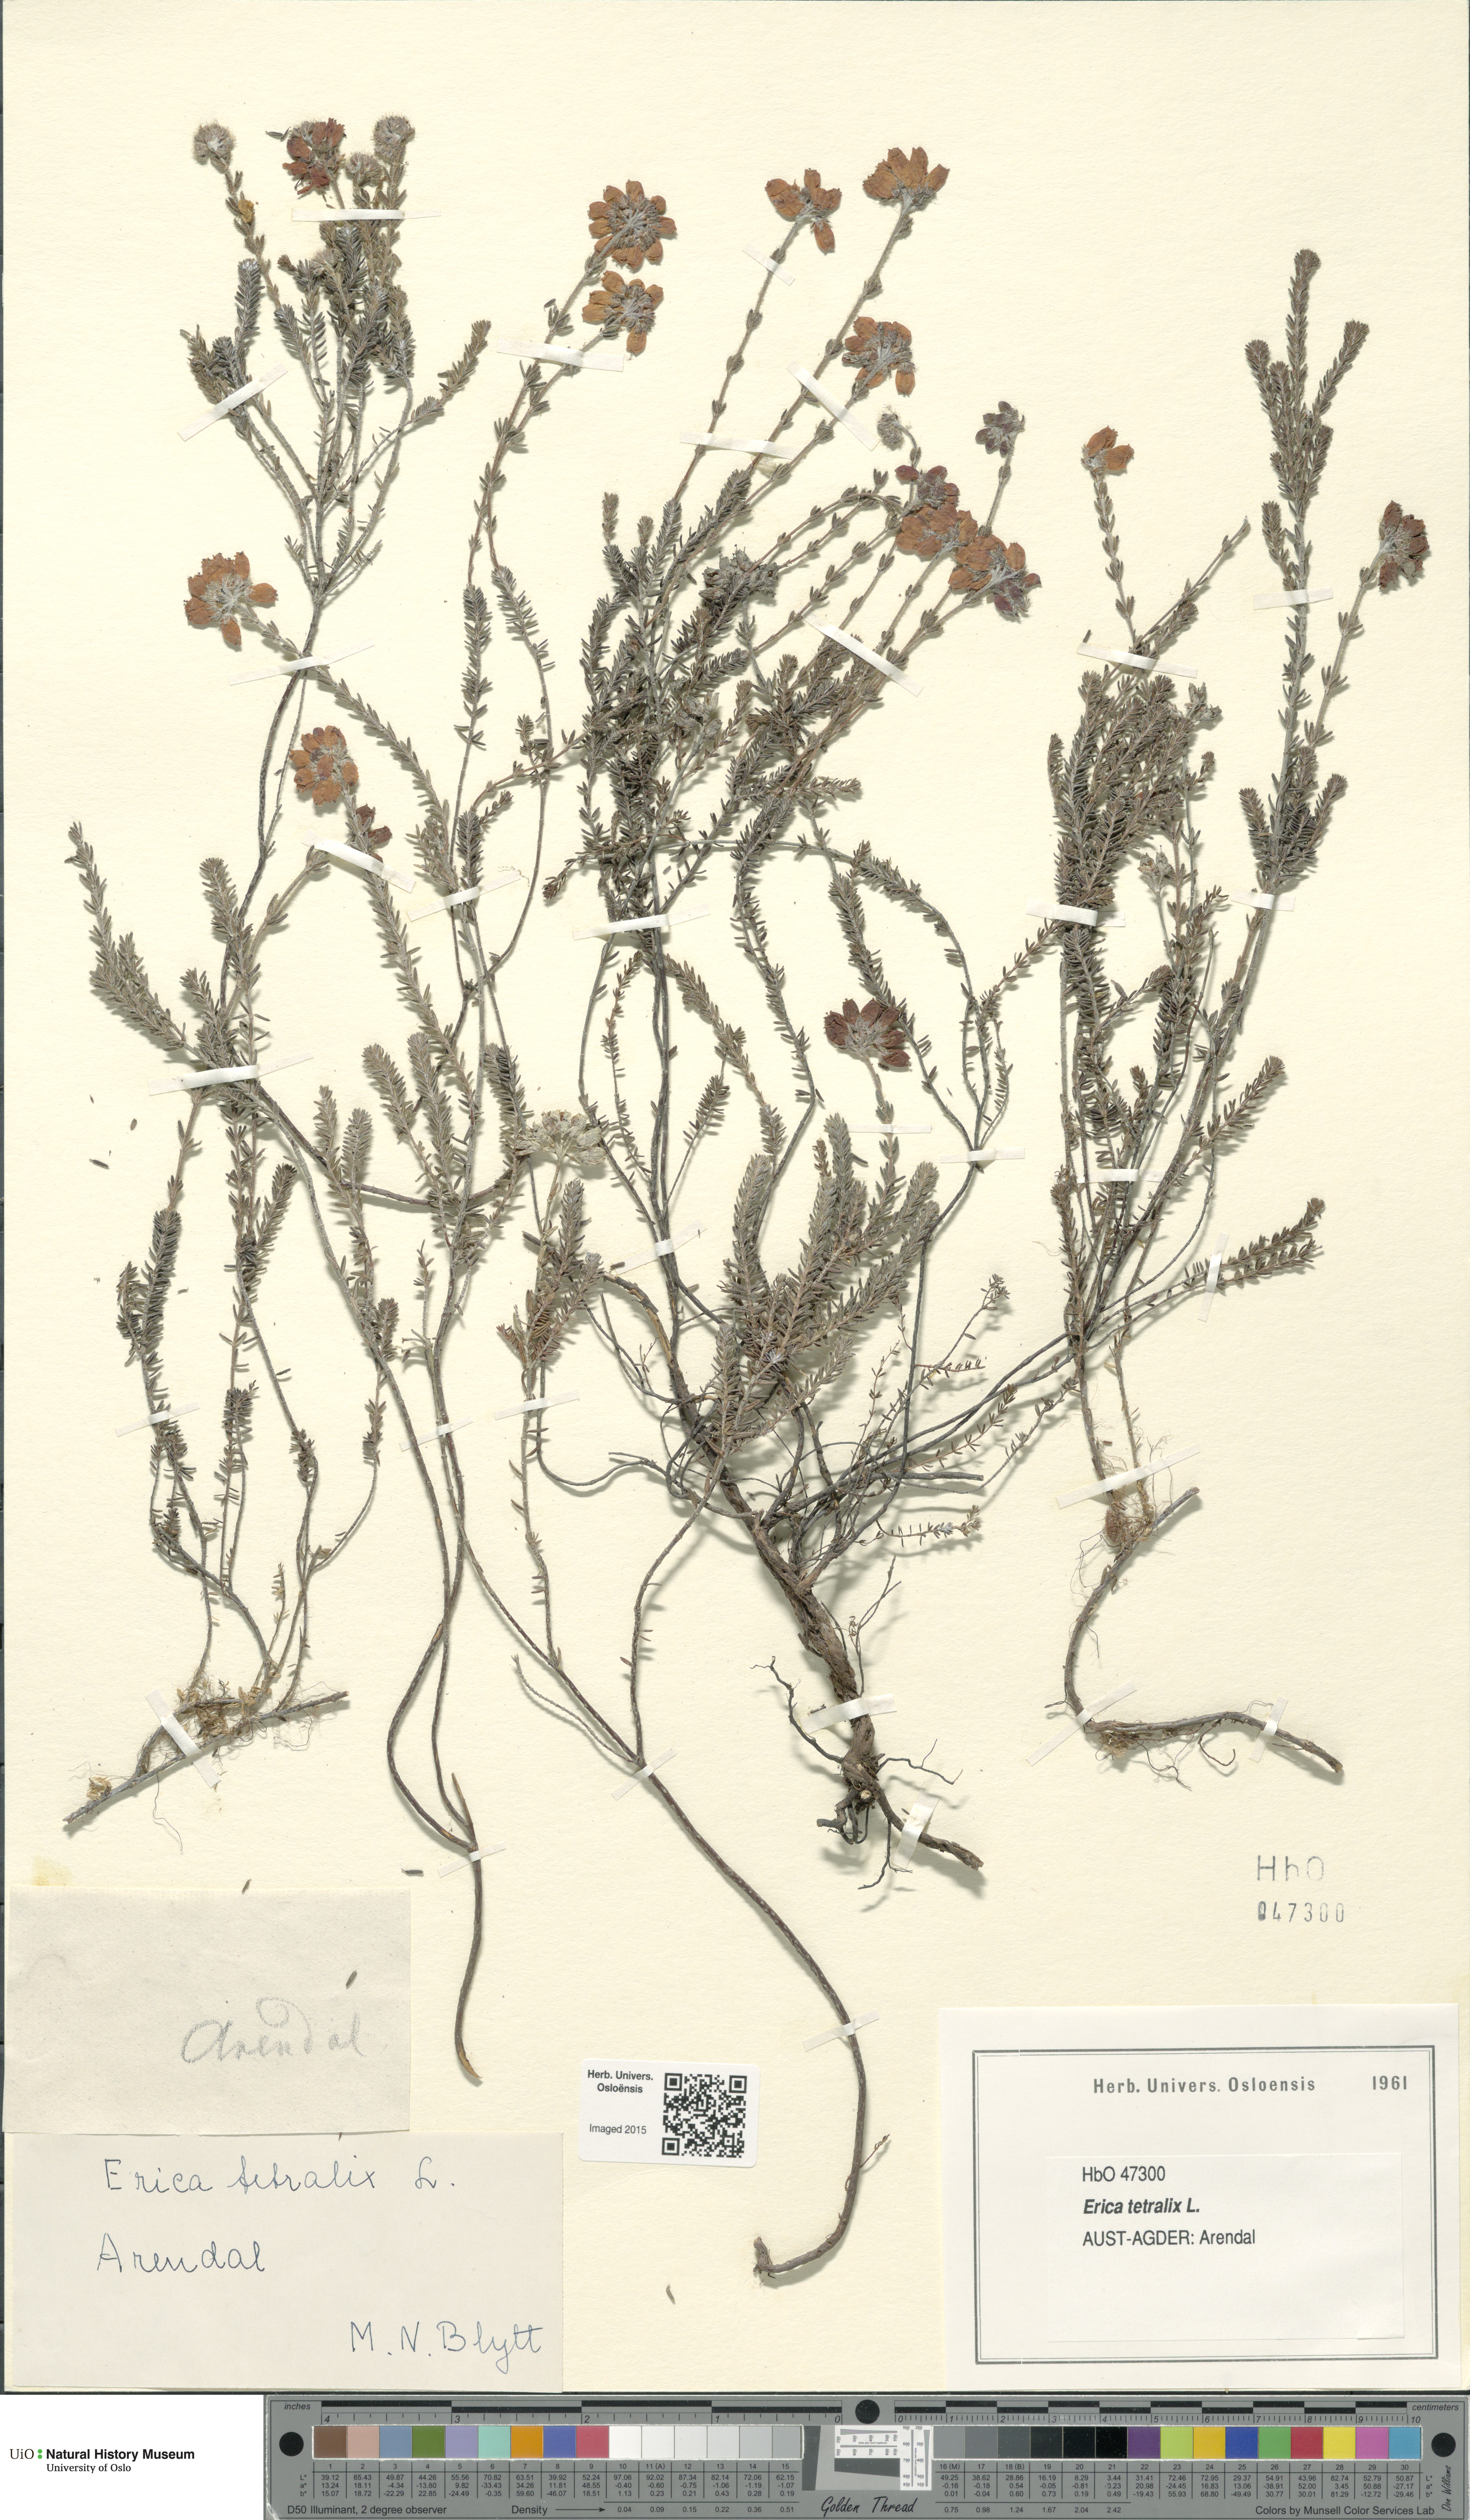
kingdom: Plantae
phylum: Tracheophyta
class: Magnoliopsida
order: Ericales
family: Ericaceae
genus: Erica
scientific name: Erica tetralix
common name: Cross-leaved heath
